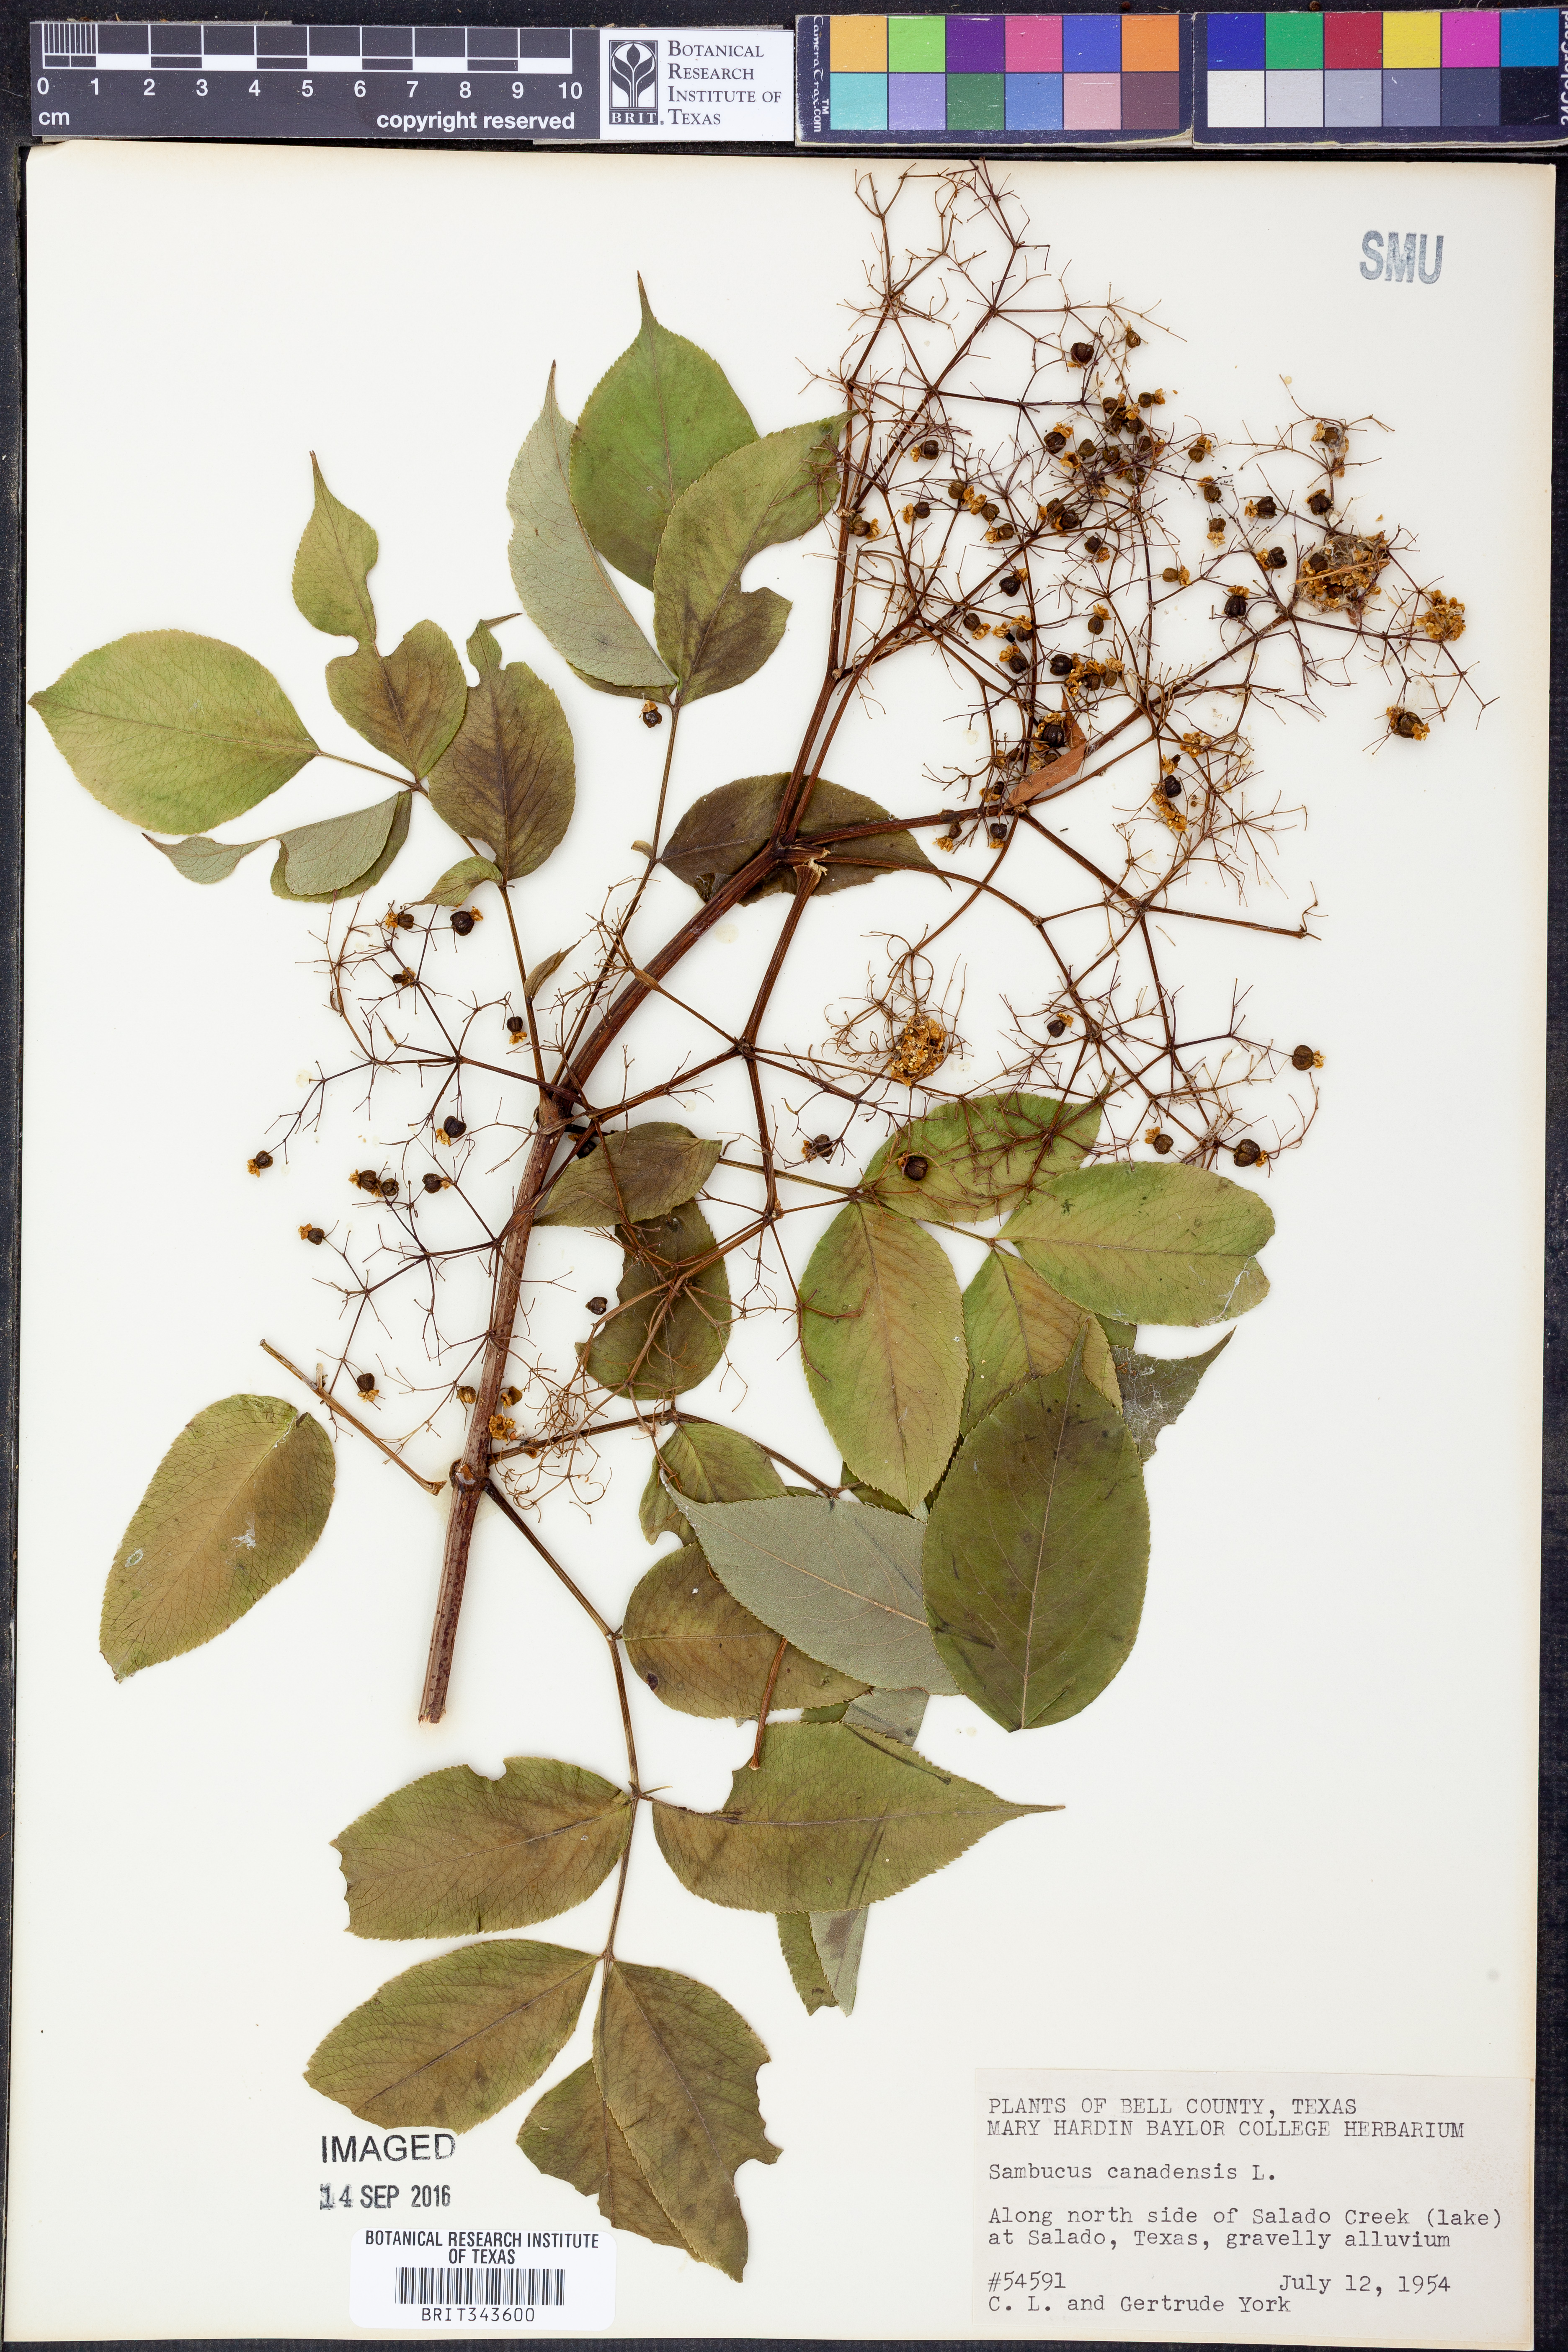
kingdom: Plantae
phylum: Tracheophyta
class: Magnoliopsida
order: Dipsacales
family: Viburnaceae
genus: Sambucus
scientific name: Sambucus canadensis
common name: American elder
